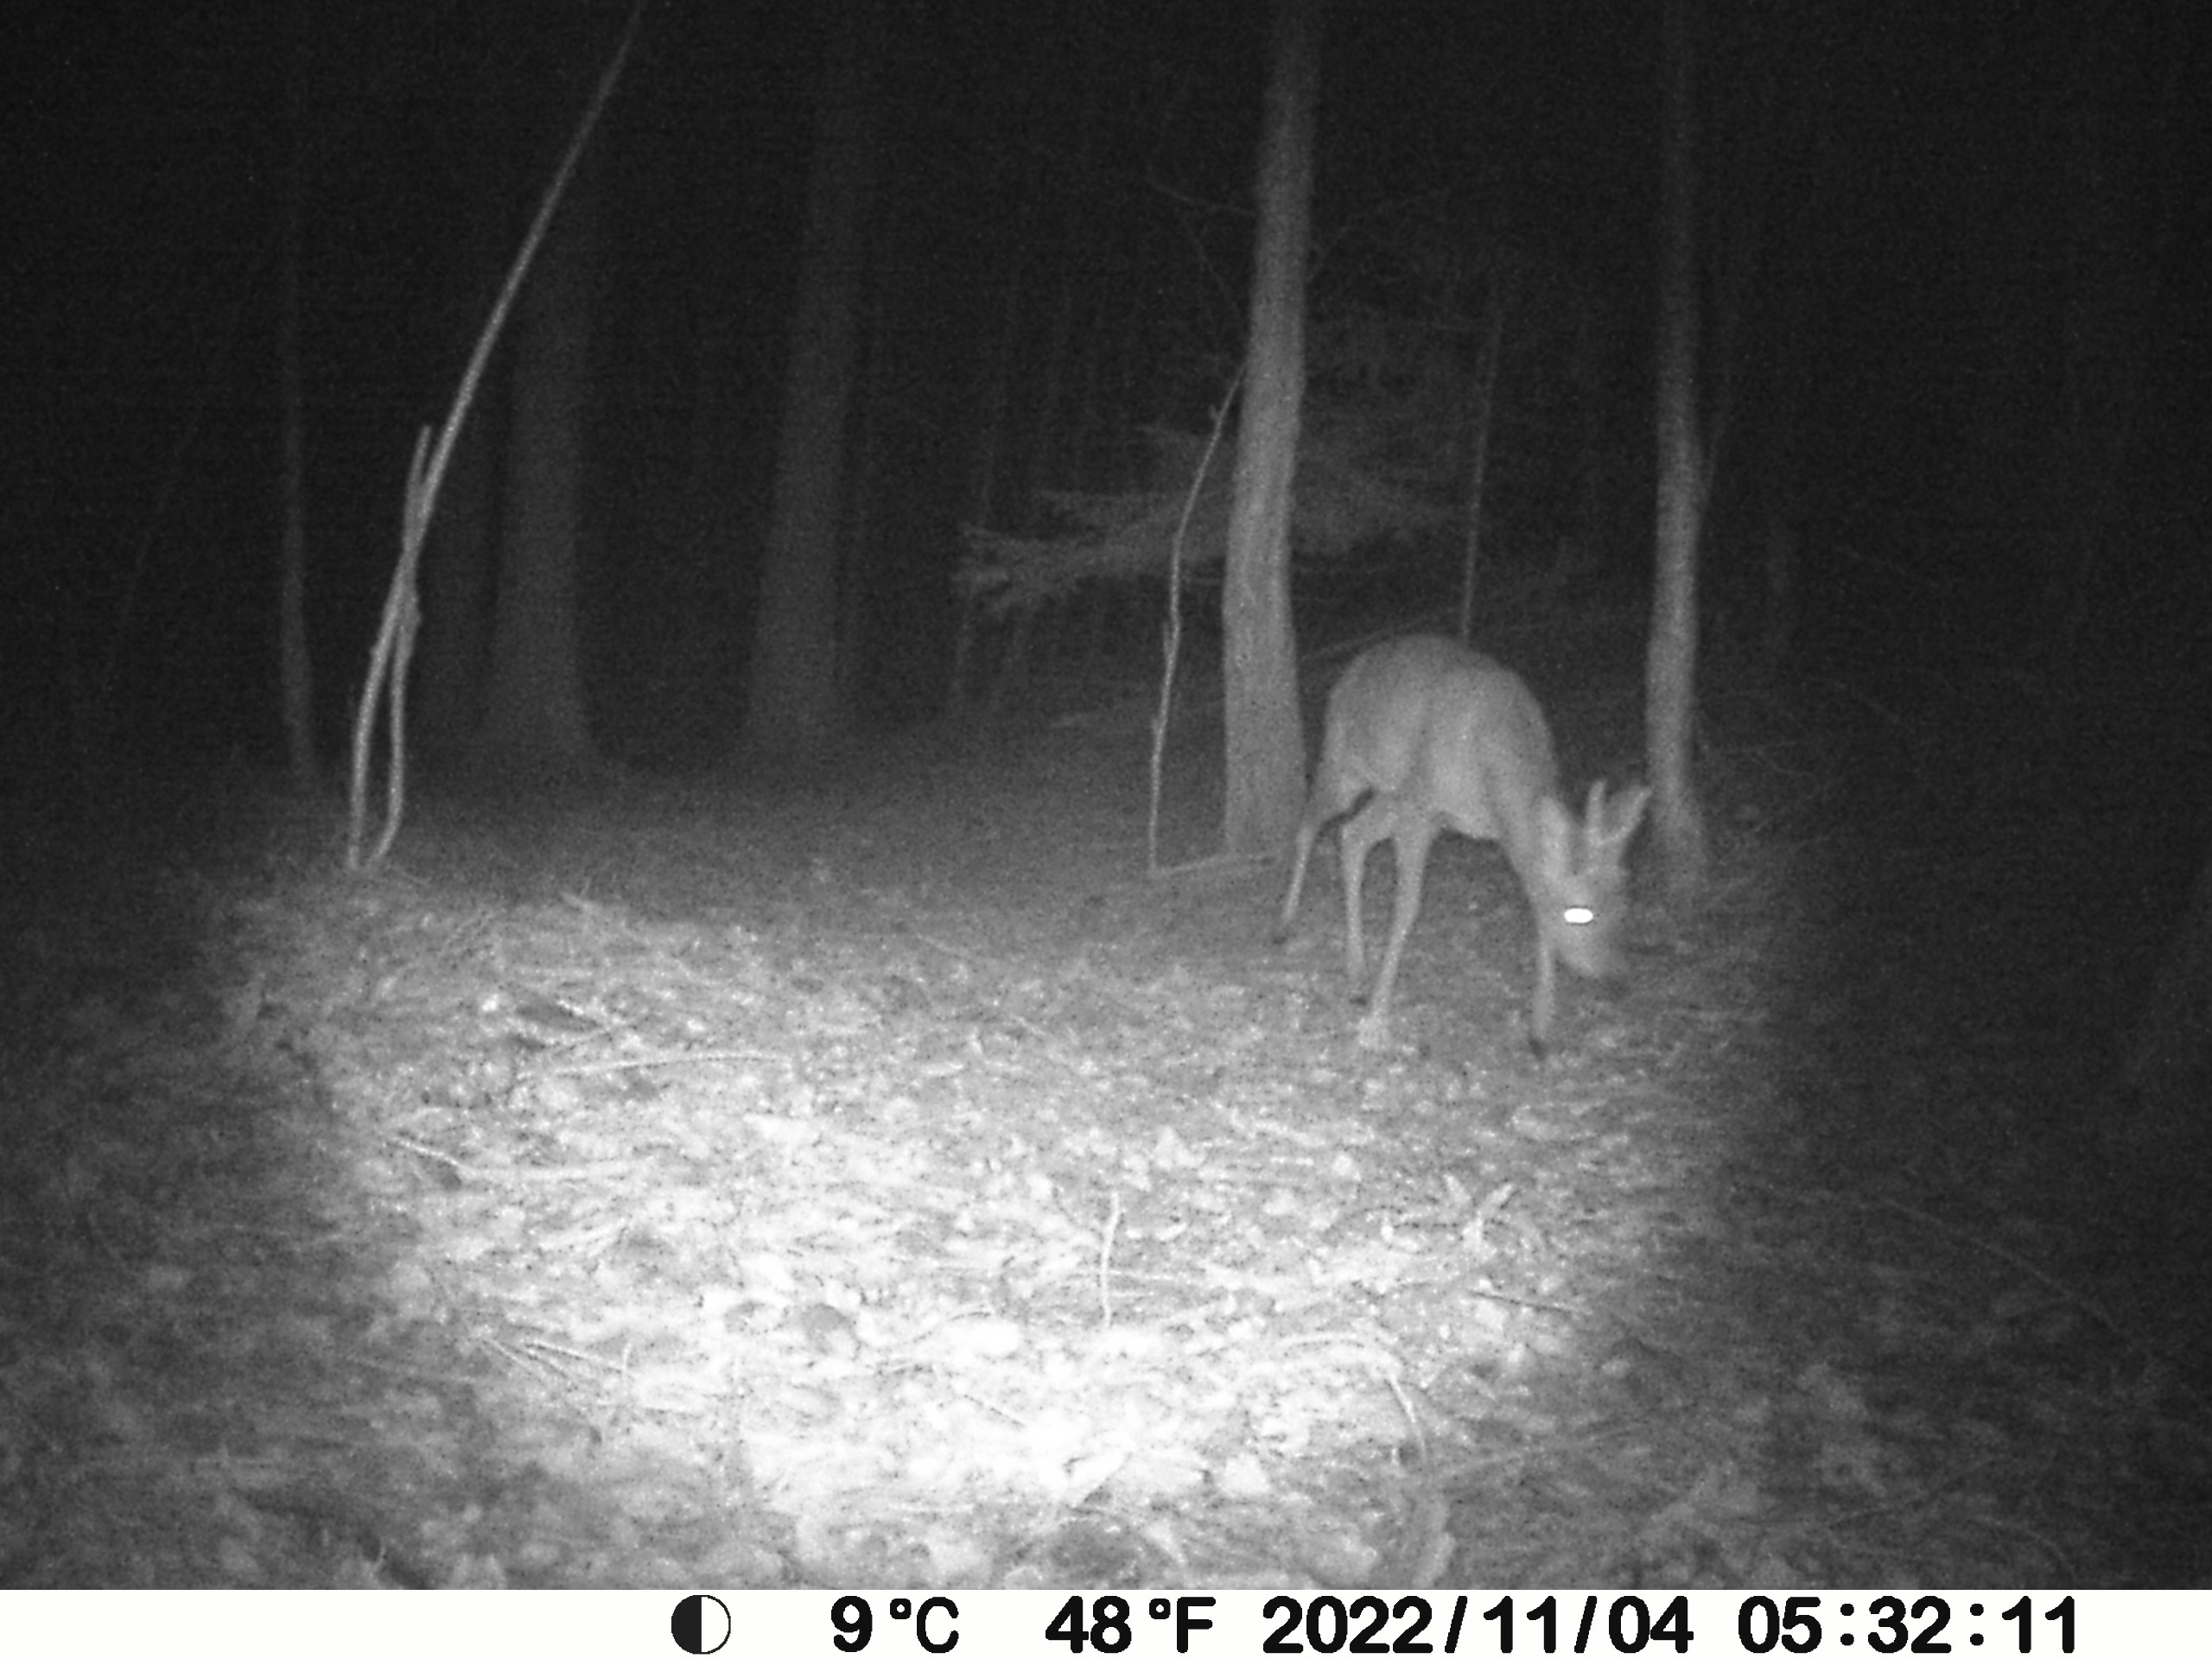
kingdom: Animalia
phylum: Chordata
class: Mammalia
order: Artiodactyla
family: Cervidae
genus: Capreolus
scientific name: Capreolus capreolus
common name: Rådyr
